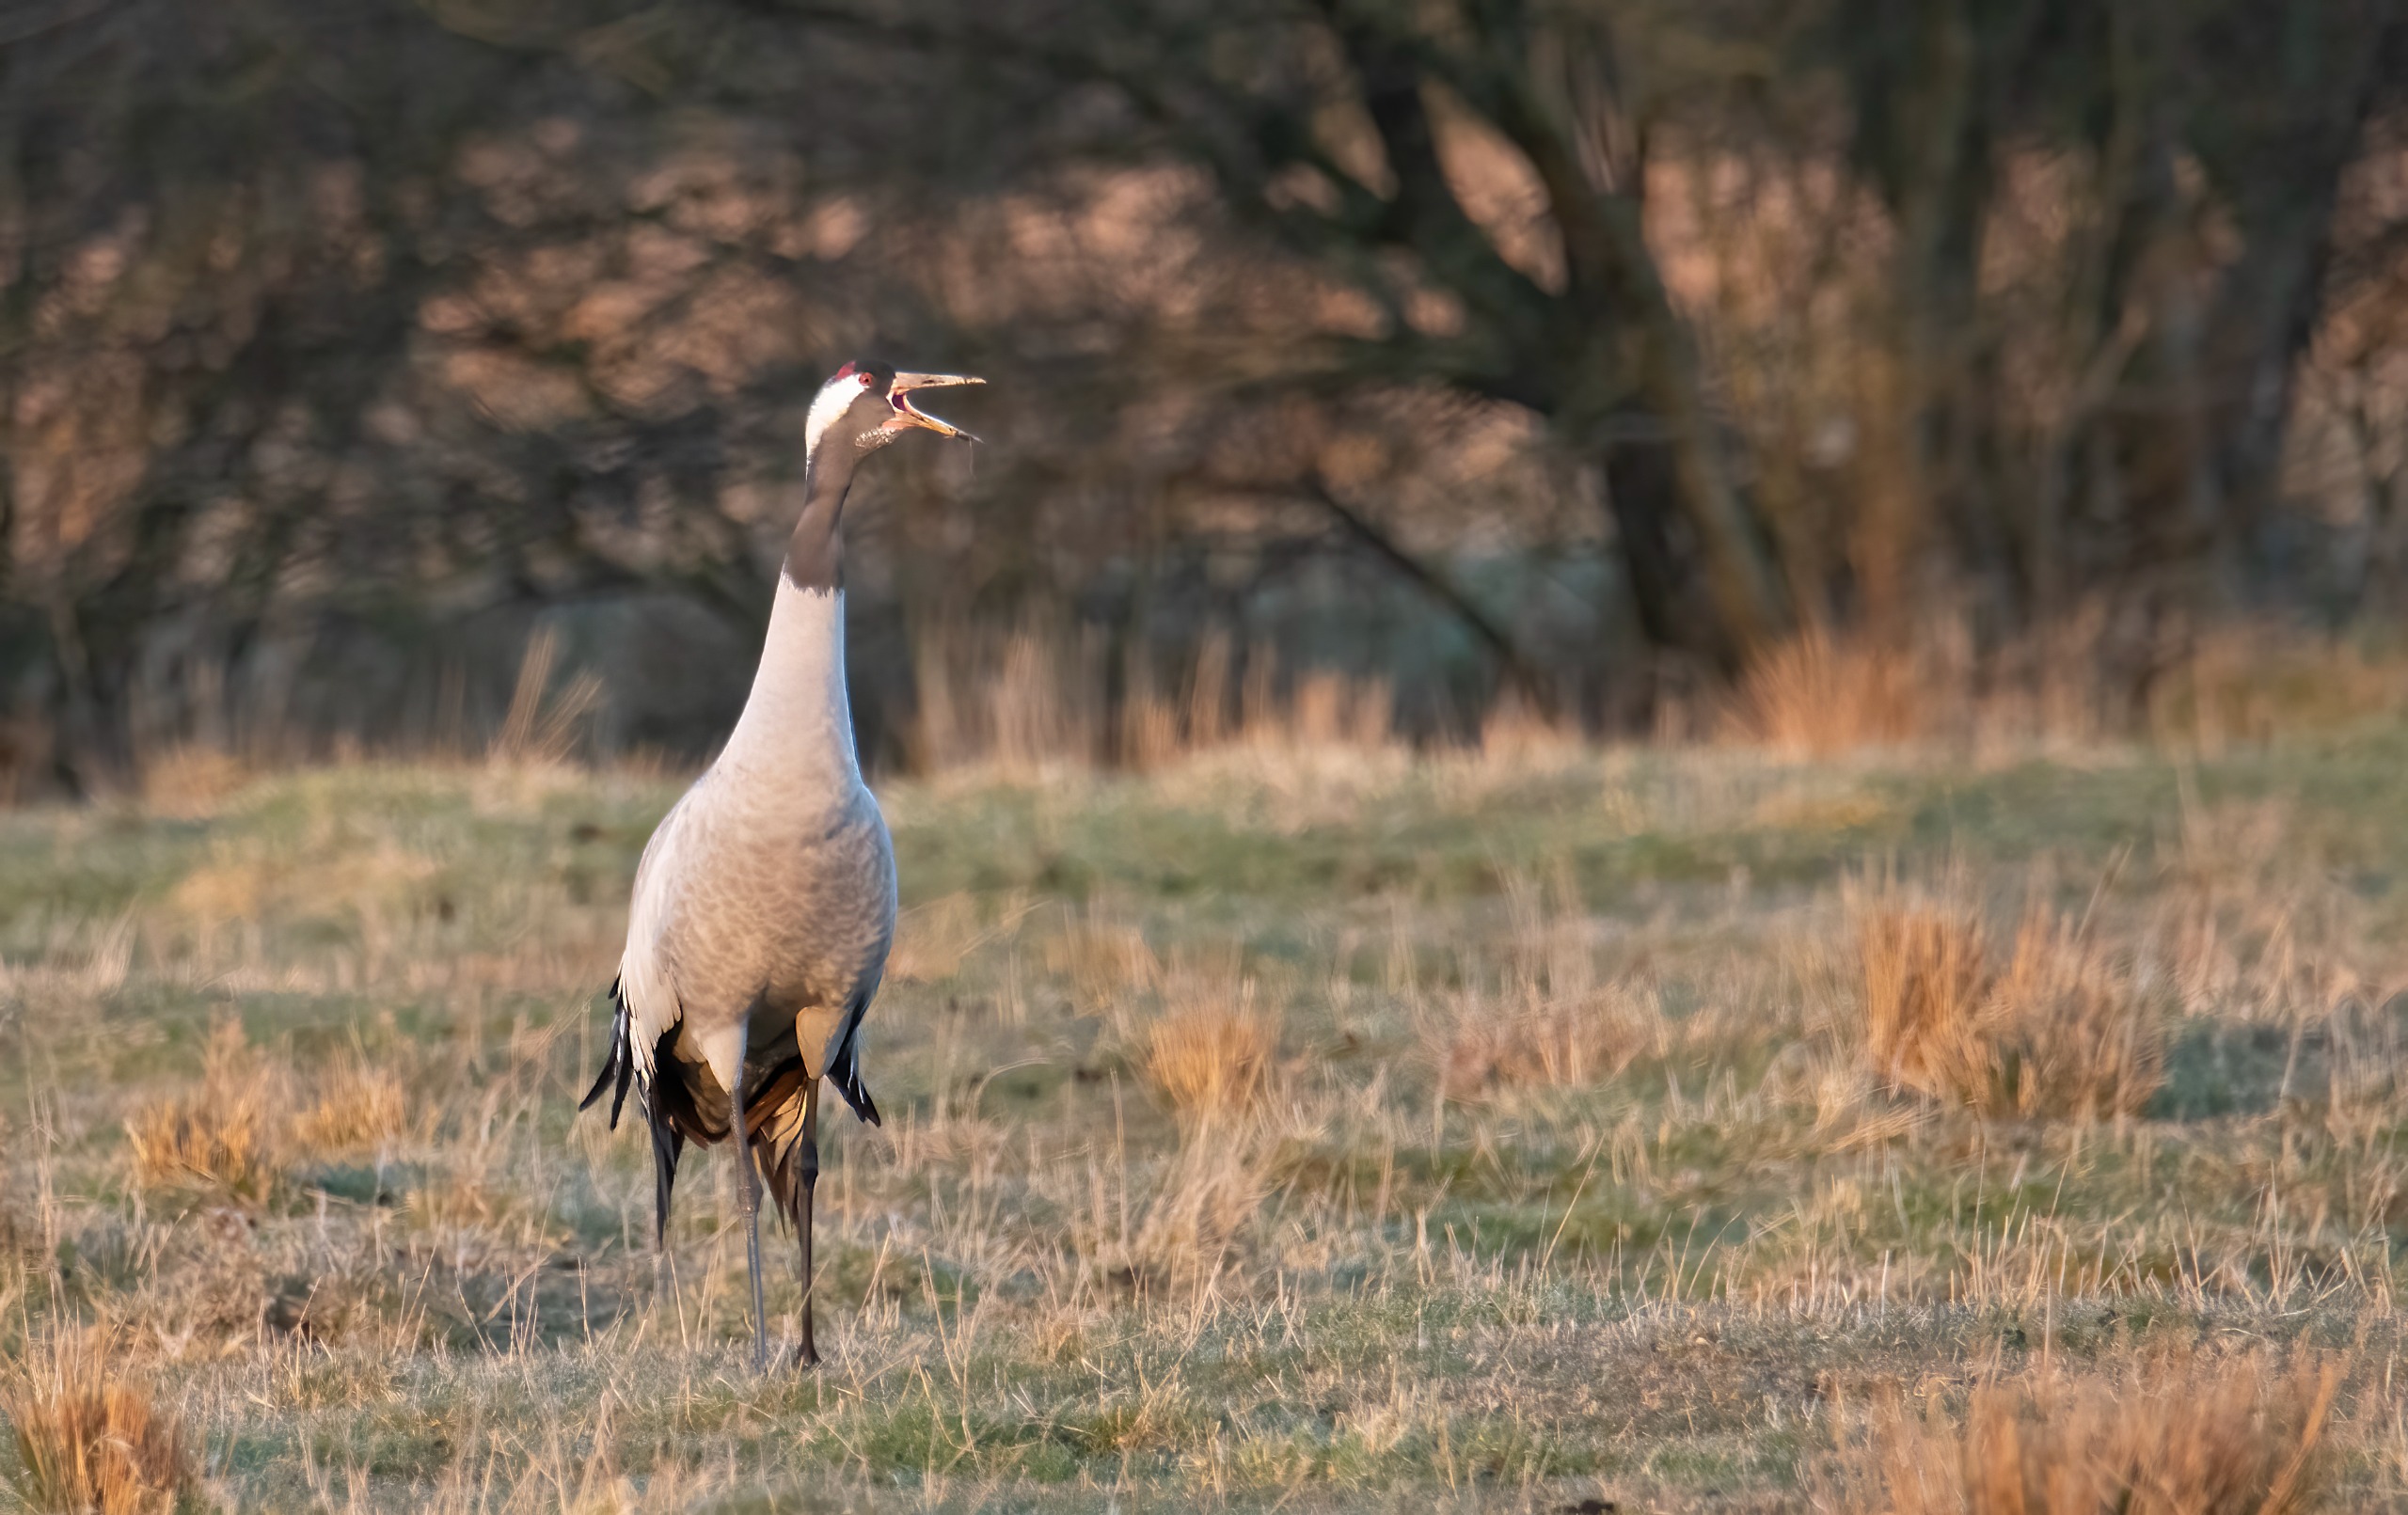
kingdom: Animalia
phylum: Chordata
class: Aves
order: Gruiformes
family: Gruidae
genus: Grus
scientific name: Grus grus
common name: Trane
